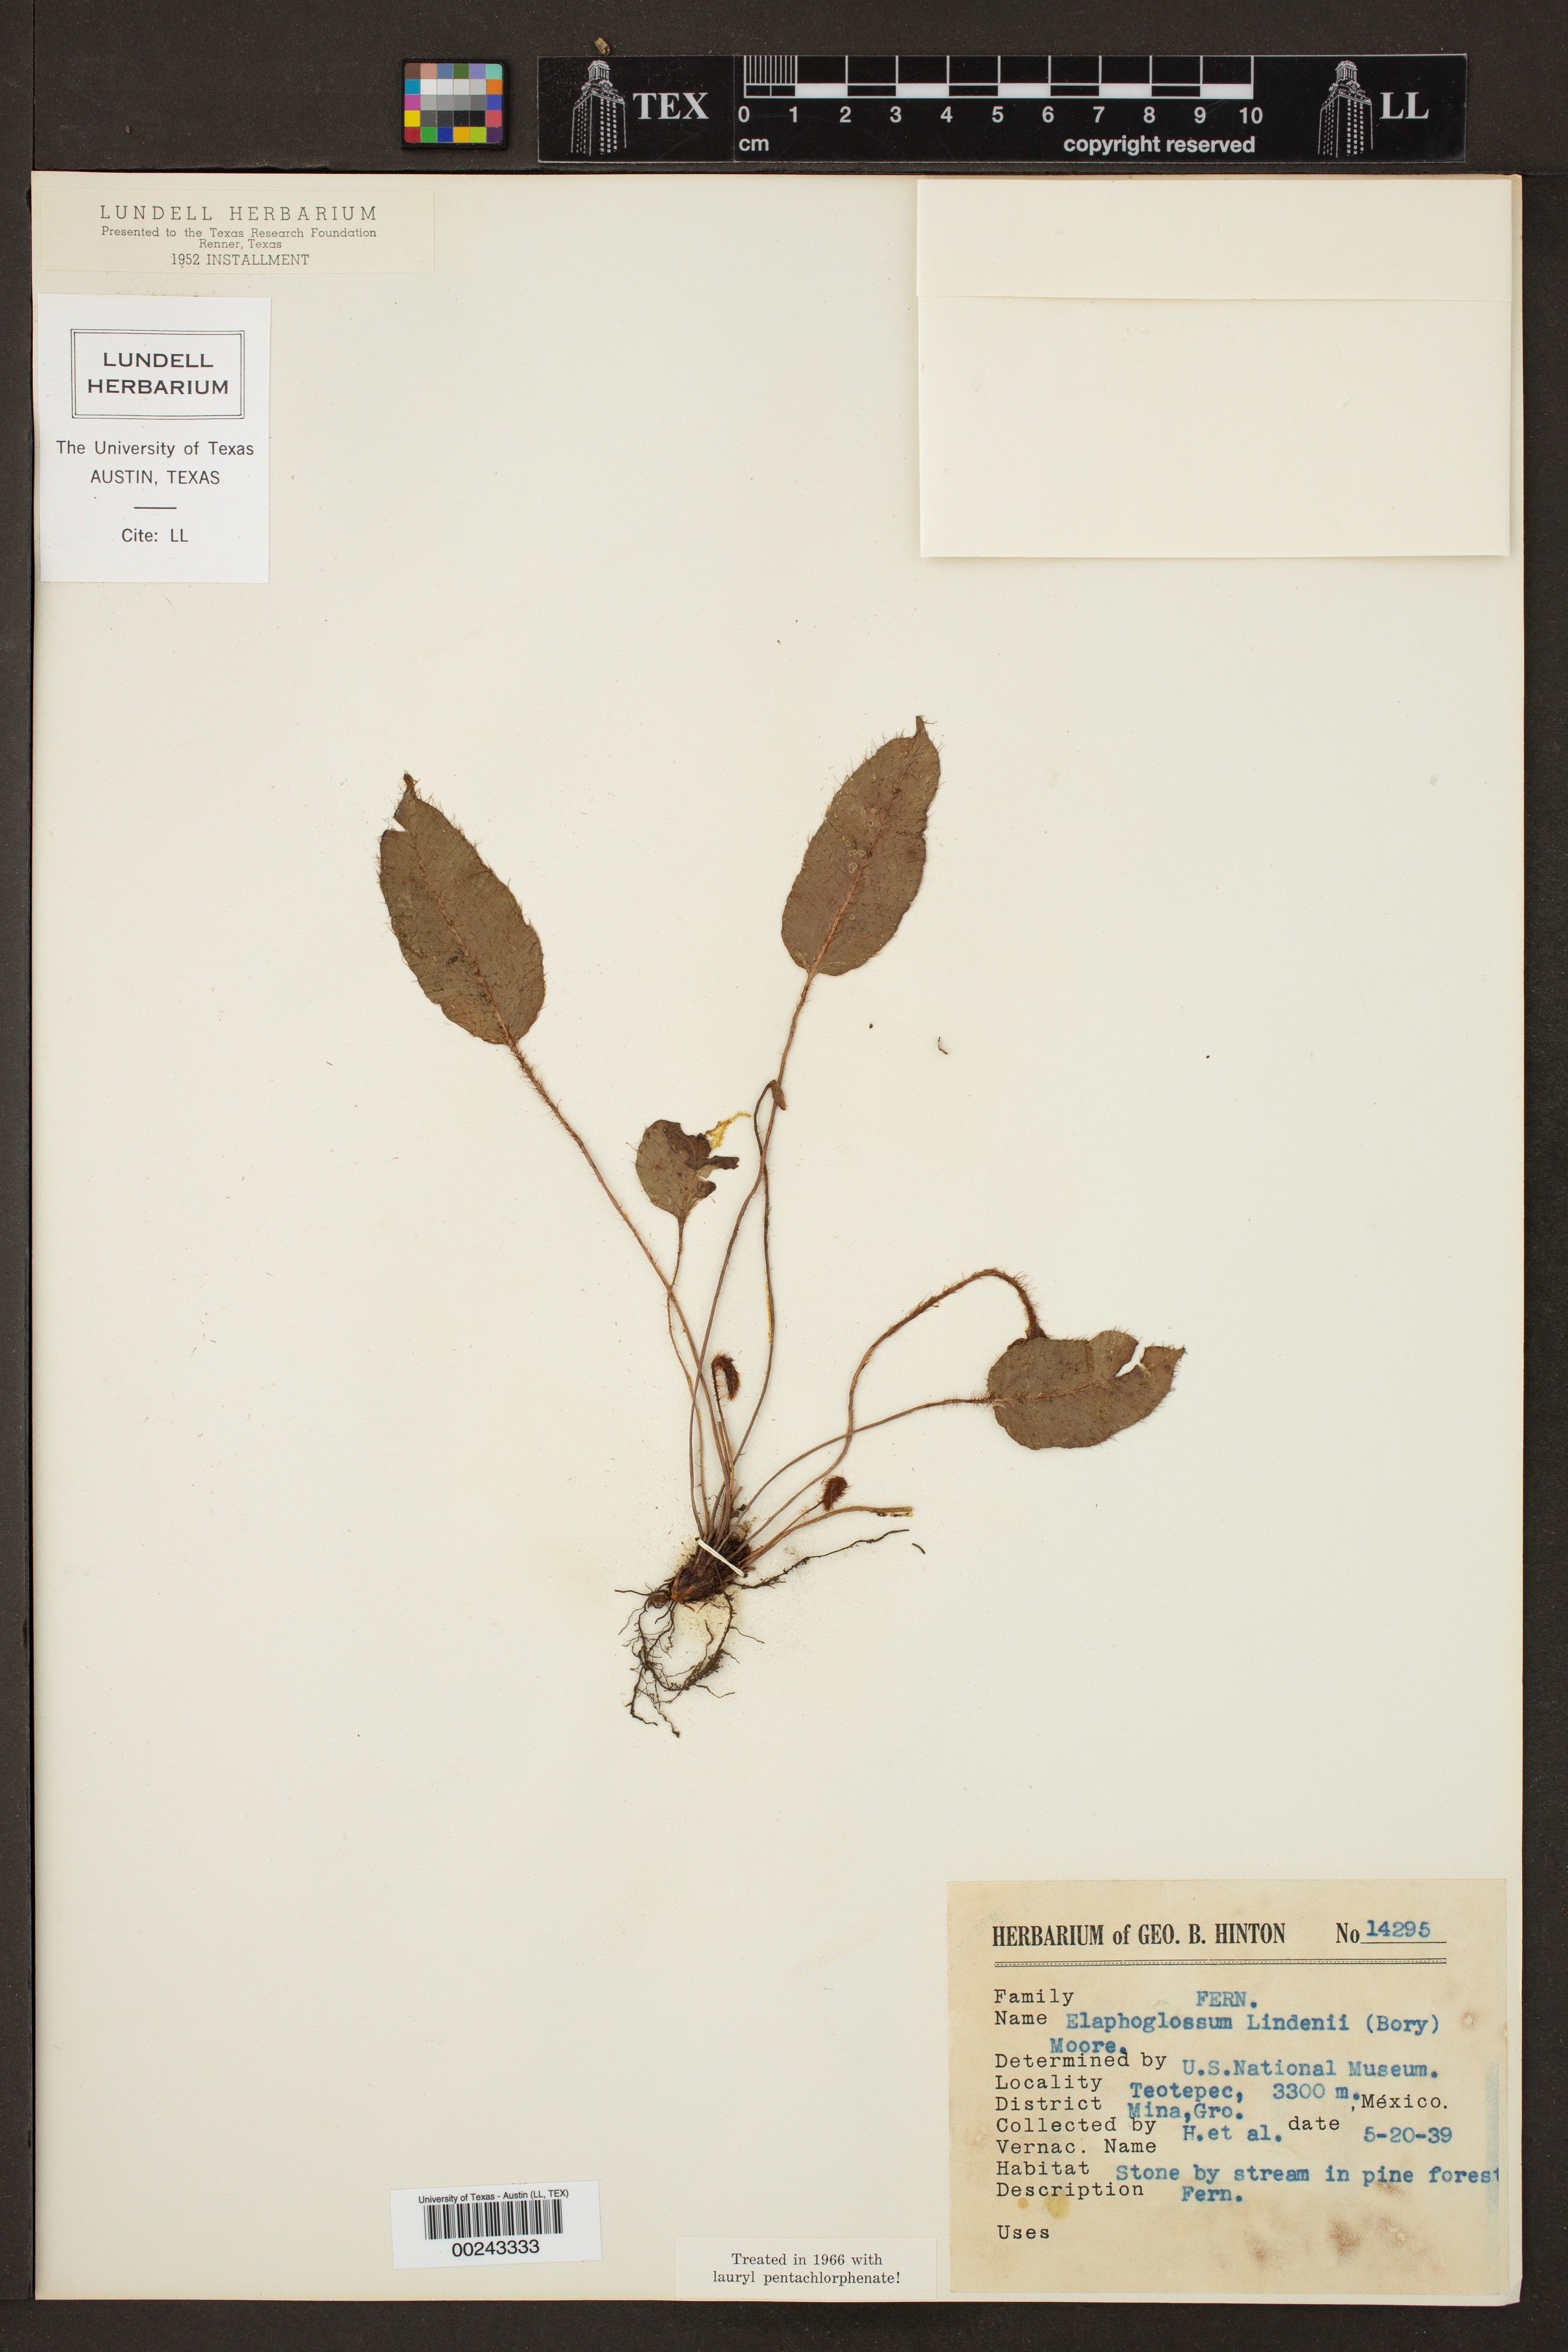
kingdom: Plantae
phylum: Tracheophyta
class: Polypodiopsida
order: Polypodiales
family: Dryopteridaceae
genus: Elaphoglossum
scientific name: Elaphoglossum lindenii
